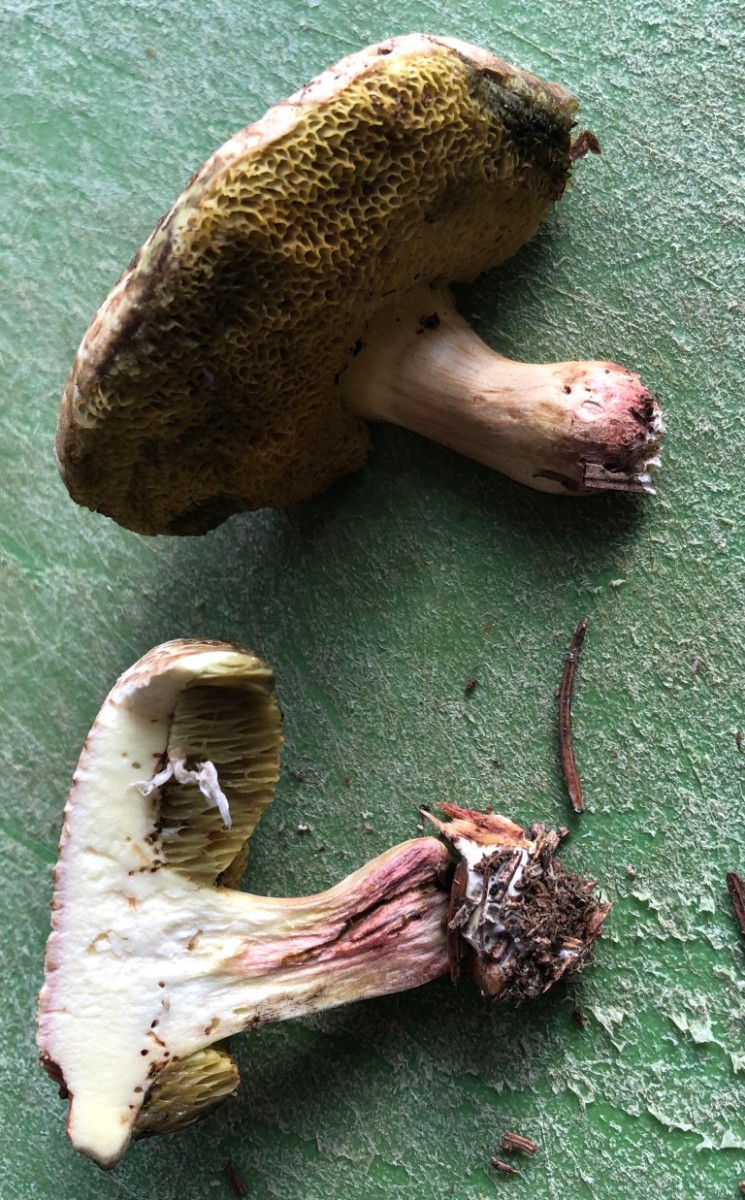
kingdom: Fungi
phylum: Basidiomycota
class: Agaricomycetes
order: Boletales
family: Boletaceae
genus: Xerocomellus
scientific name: Xerocomellus porosporus
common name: hvidsprukken rørhat
